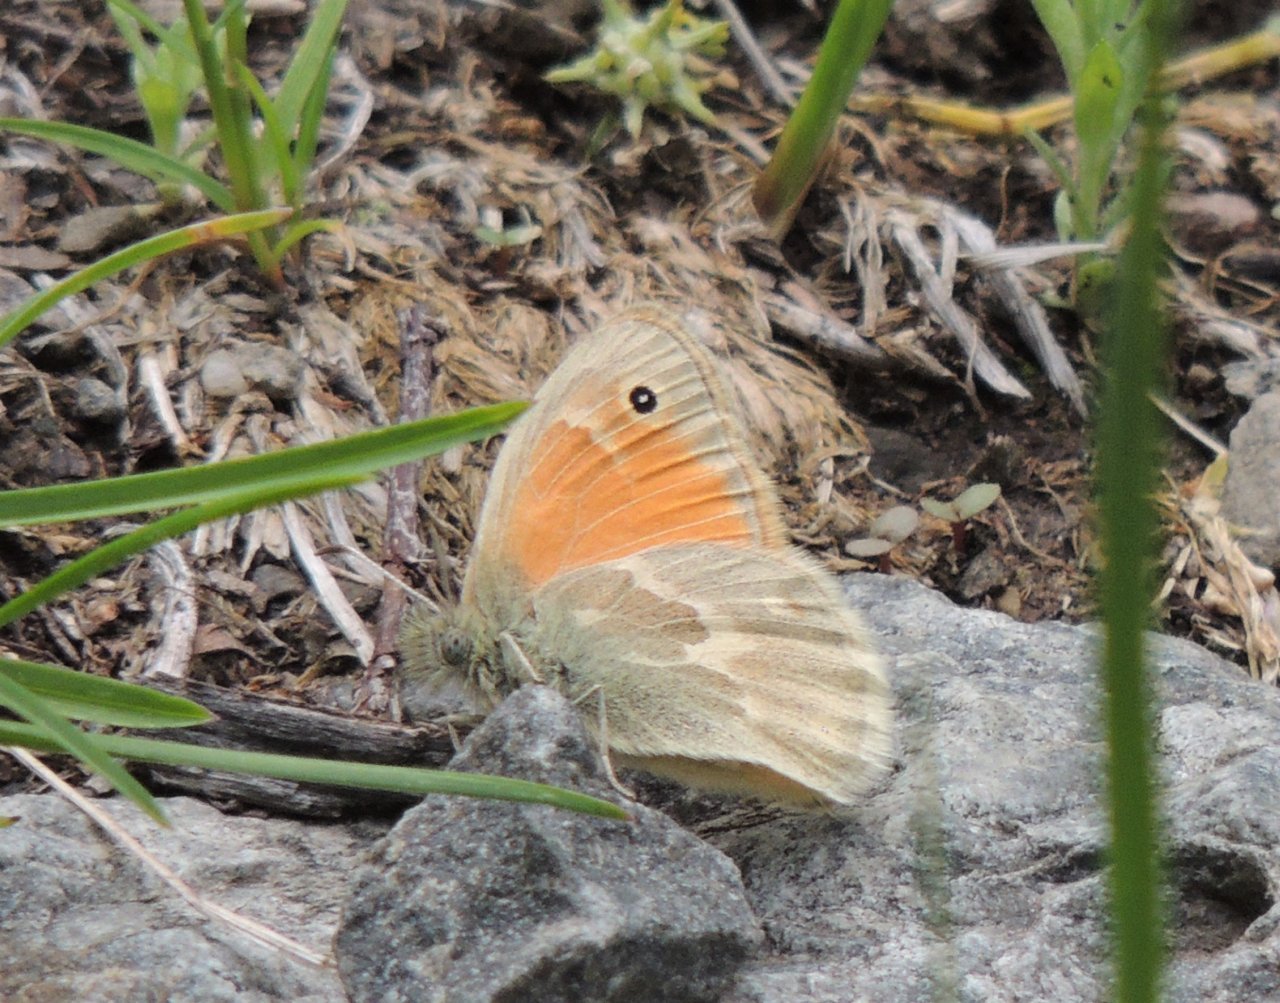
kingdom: Animalia
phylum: Arthropoda
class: Insecta
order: Lepidoptera
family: Nymphalidae
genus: Coenonympha
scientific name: Coenonympha tullia
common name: Large Heath
